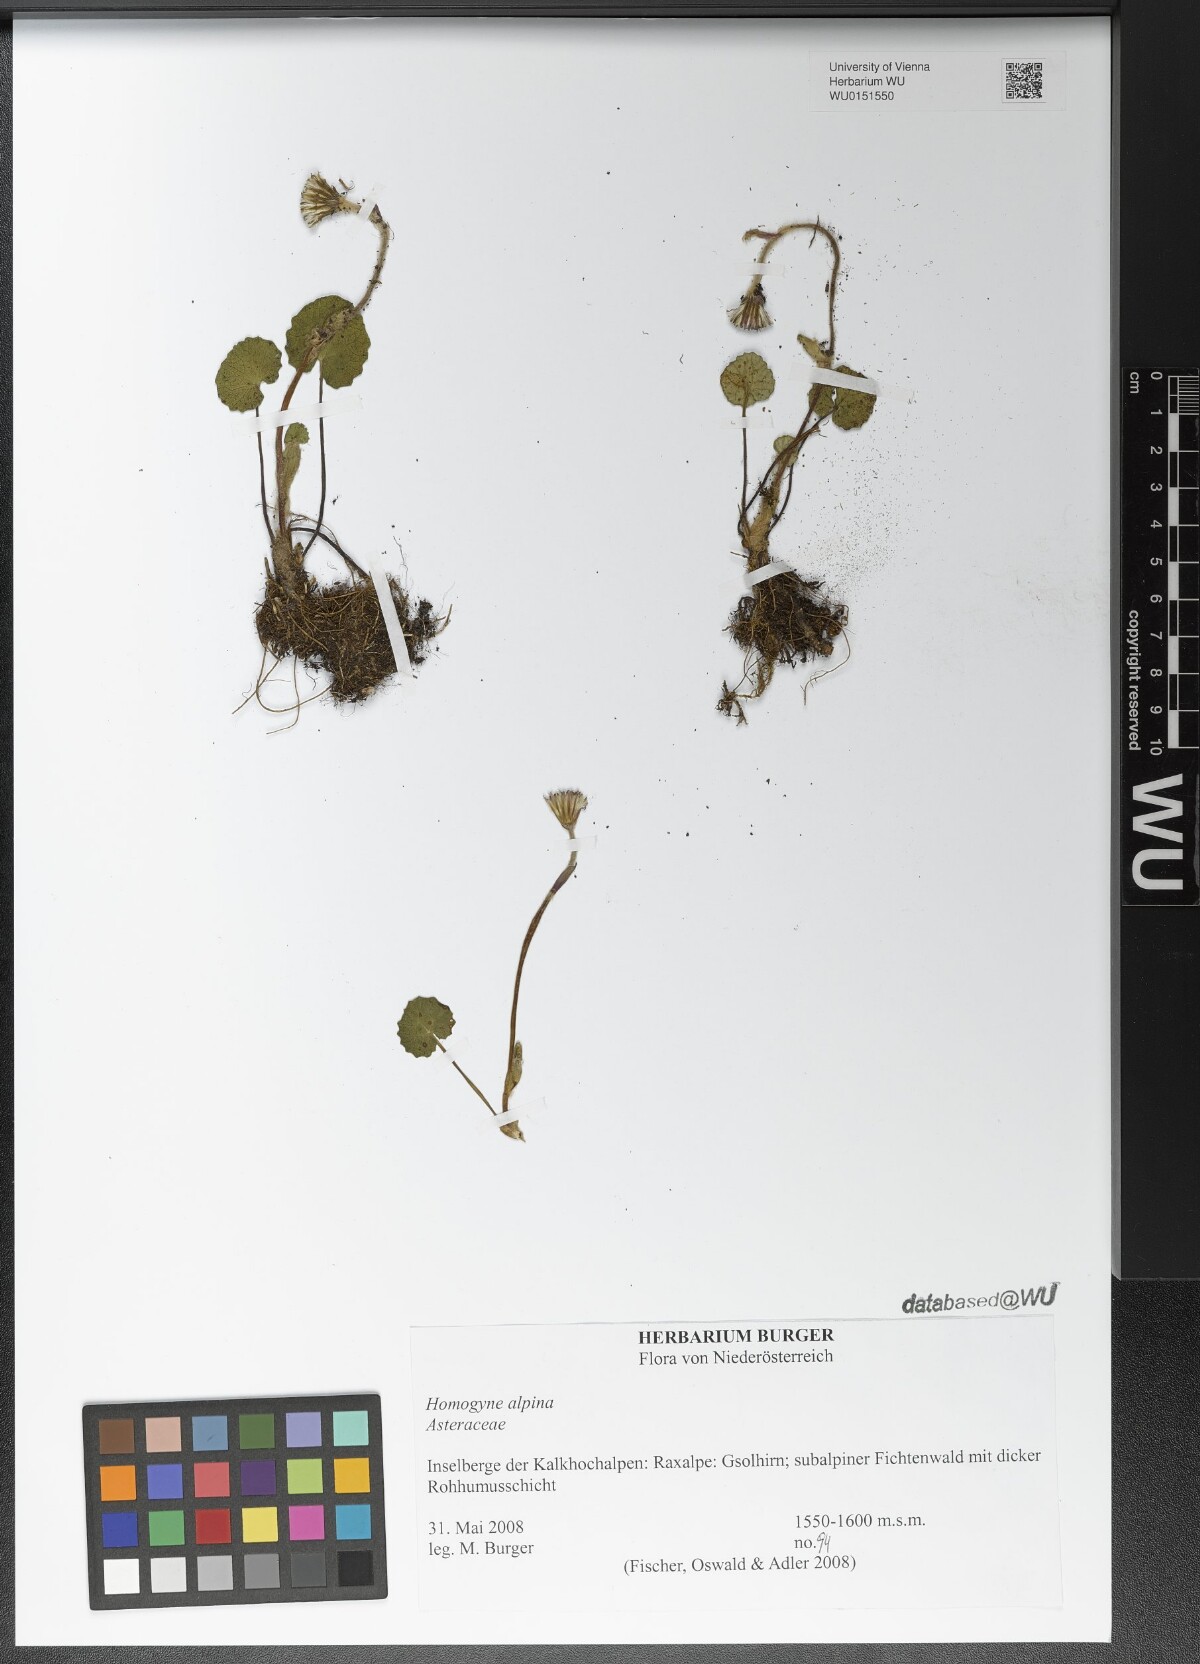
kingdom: Plantae
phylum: Tracheophyta
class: Magnoliopsida
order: Asterales
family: Asteraceae
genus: Homogyne
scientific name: Homogyne alpina
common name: Purple colt's-foot
